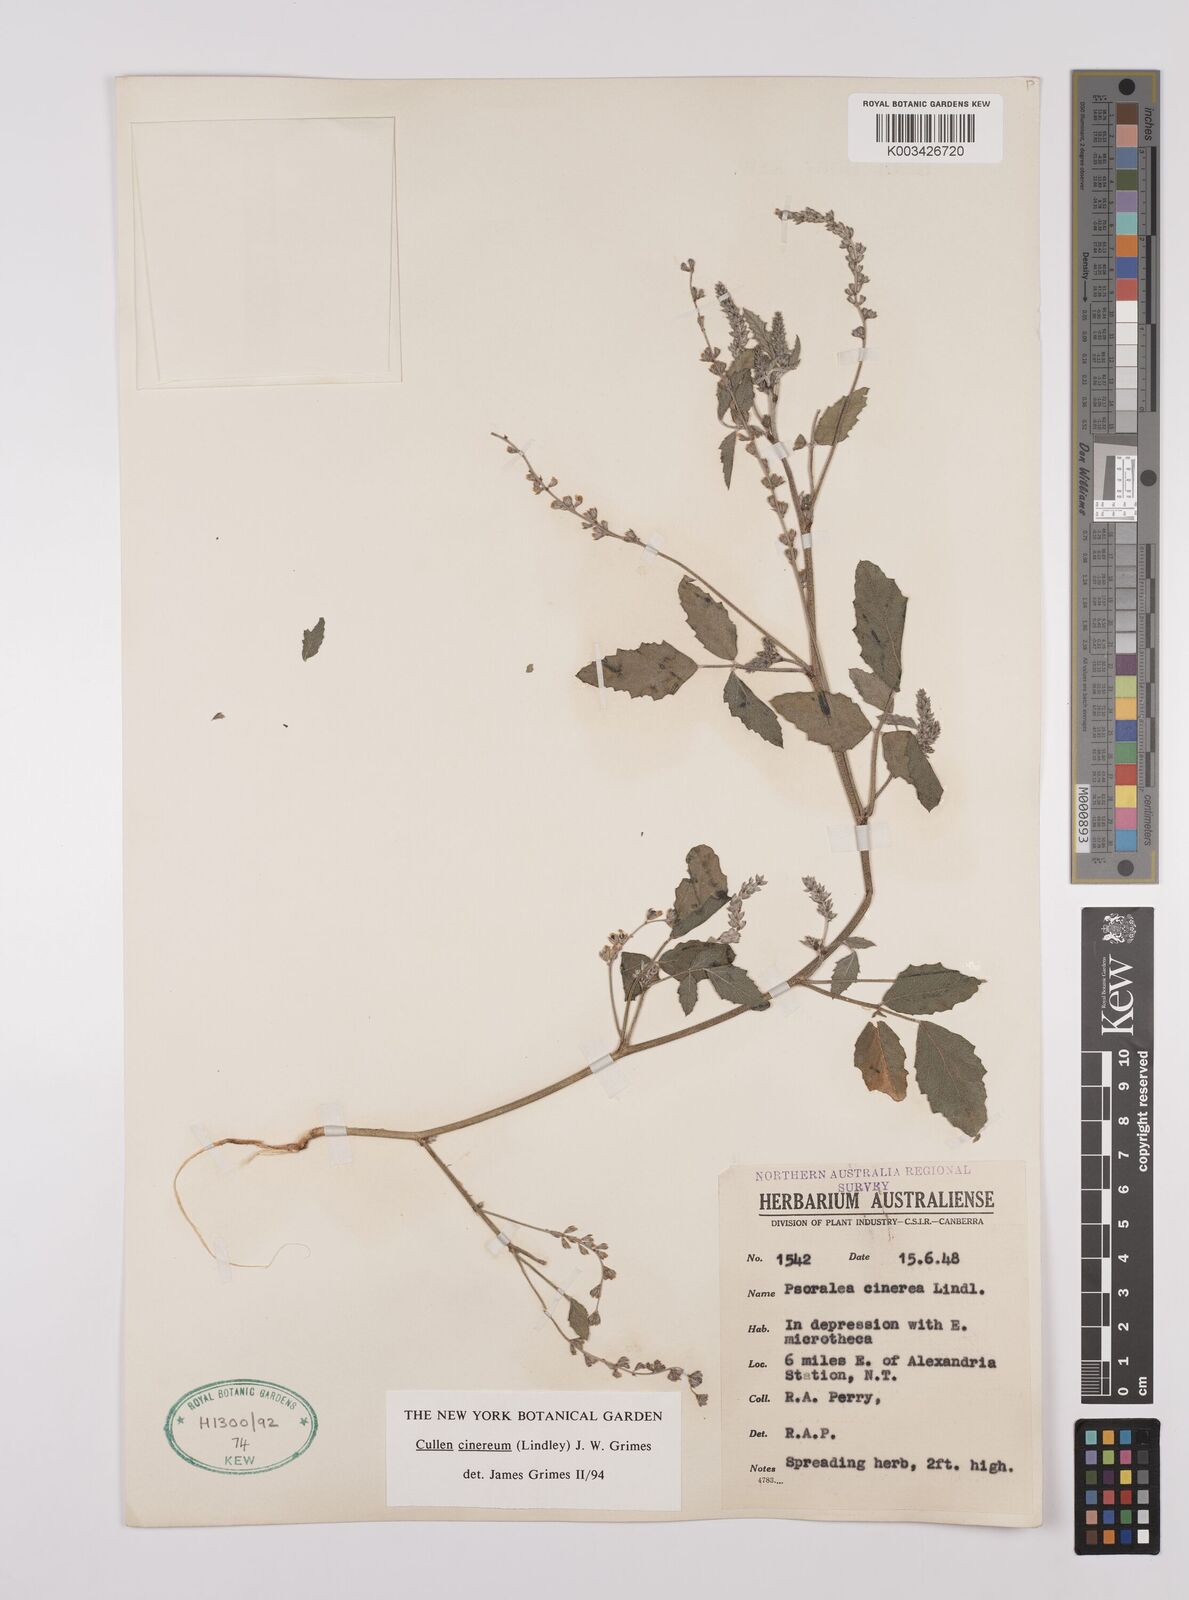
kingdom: Plantae
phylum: Tracheophyta
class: Magnoliopsida
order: Fabales
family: Fabaceae
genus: Cullen
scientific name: Cullen cinereum
